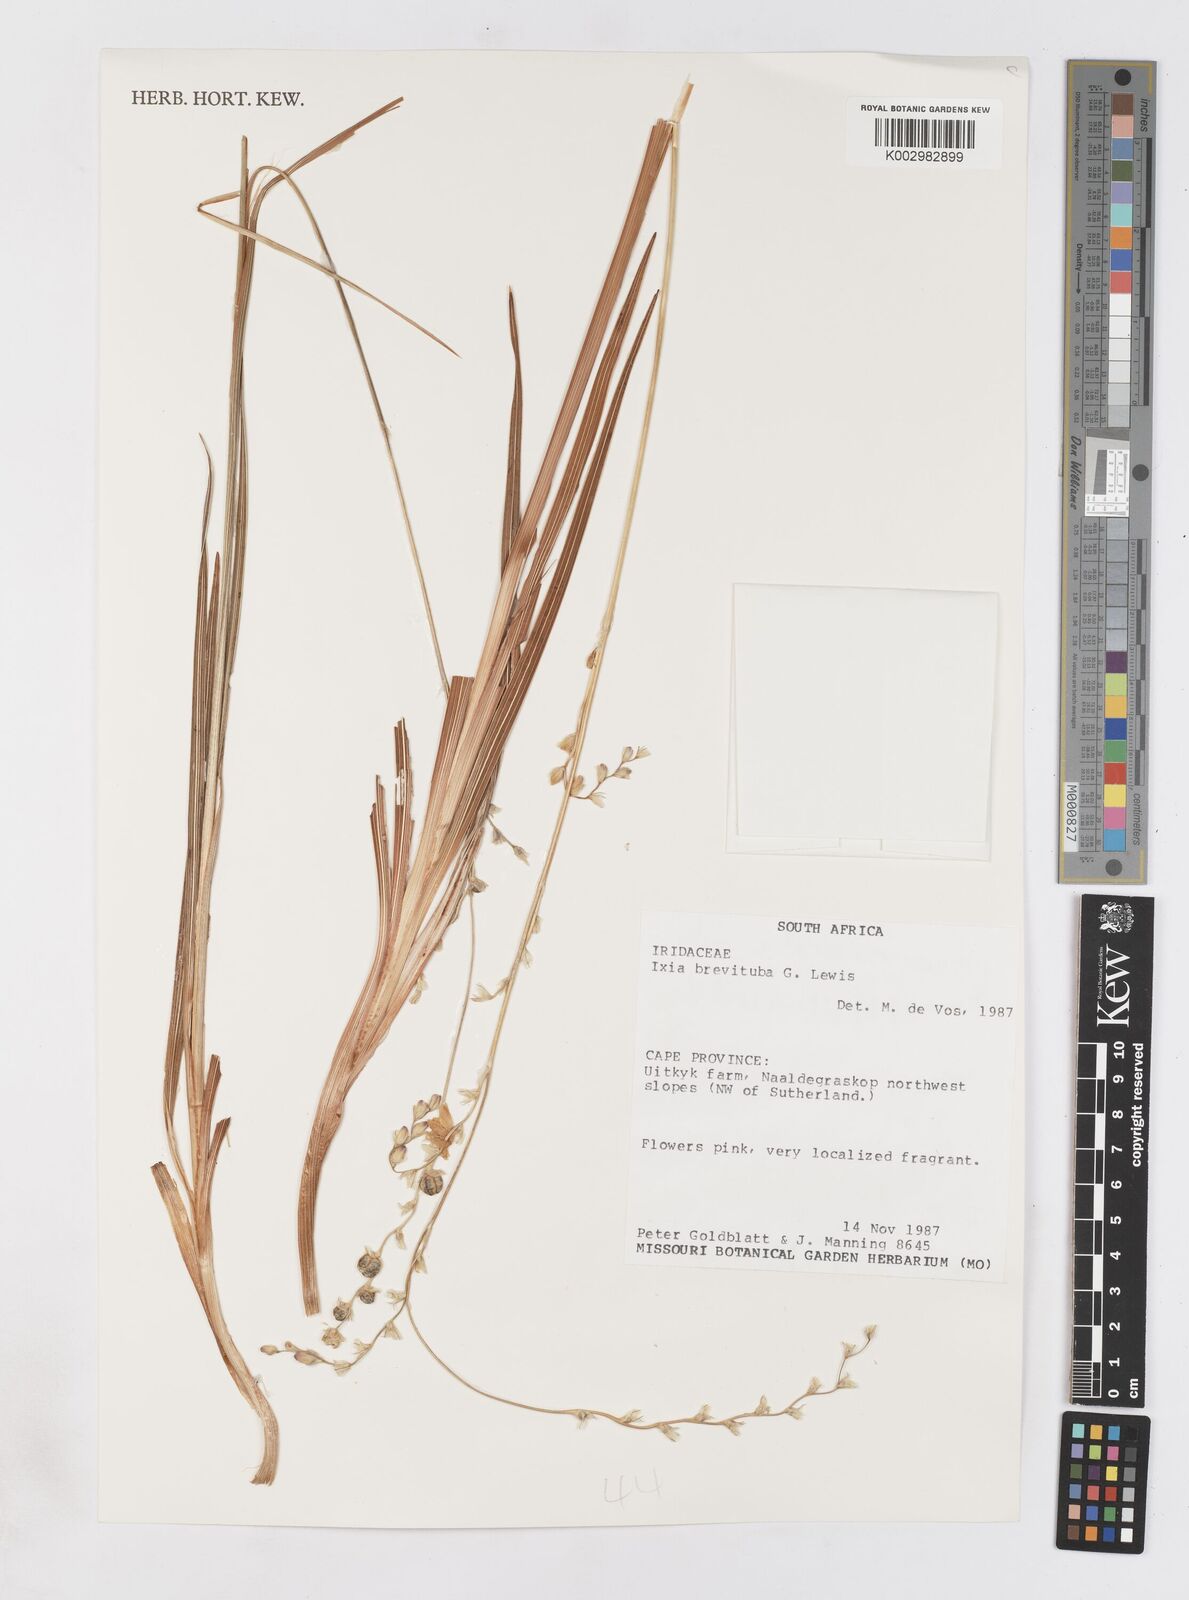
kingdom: Plantae
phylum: Tracheophyta
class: Liliopsida
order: Asparagales
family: Iridaceae
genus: Ixia
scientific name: Ixia brevituba
